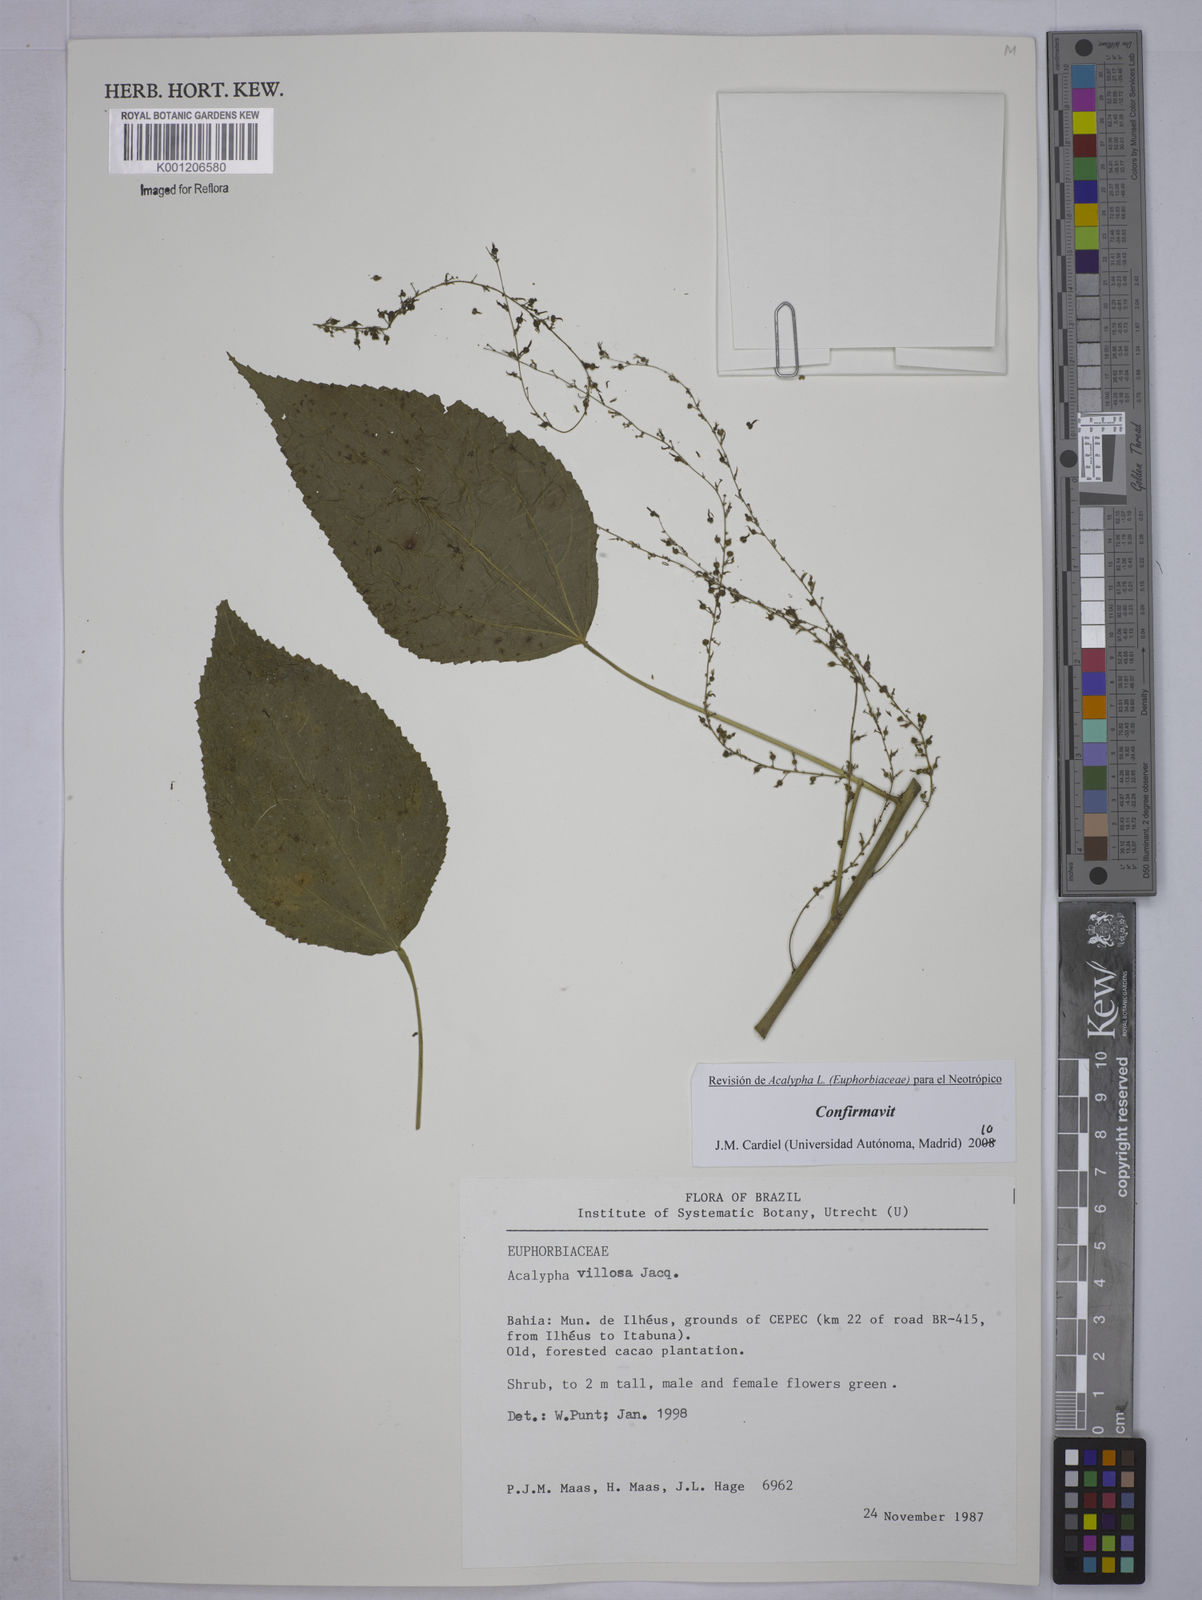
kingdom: Plantae
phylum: Tracheophyta
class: Magnoliopsida
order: Malpighiales
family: Euphorbiaceae
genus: Acalypha
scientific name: Acalypha villosa
